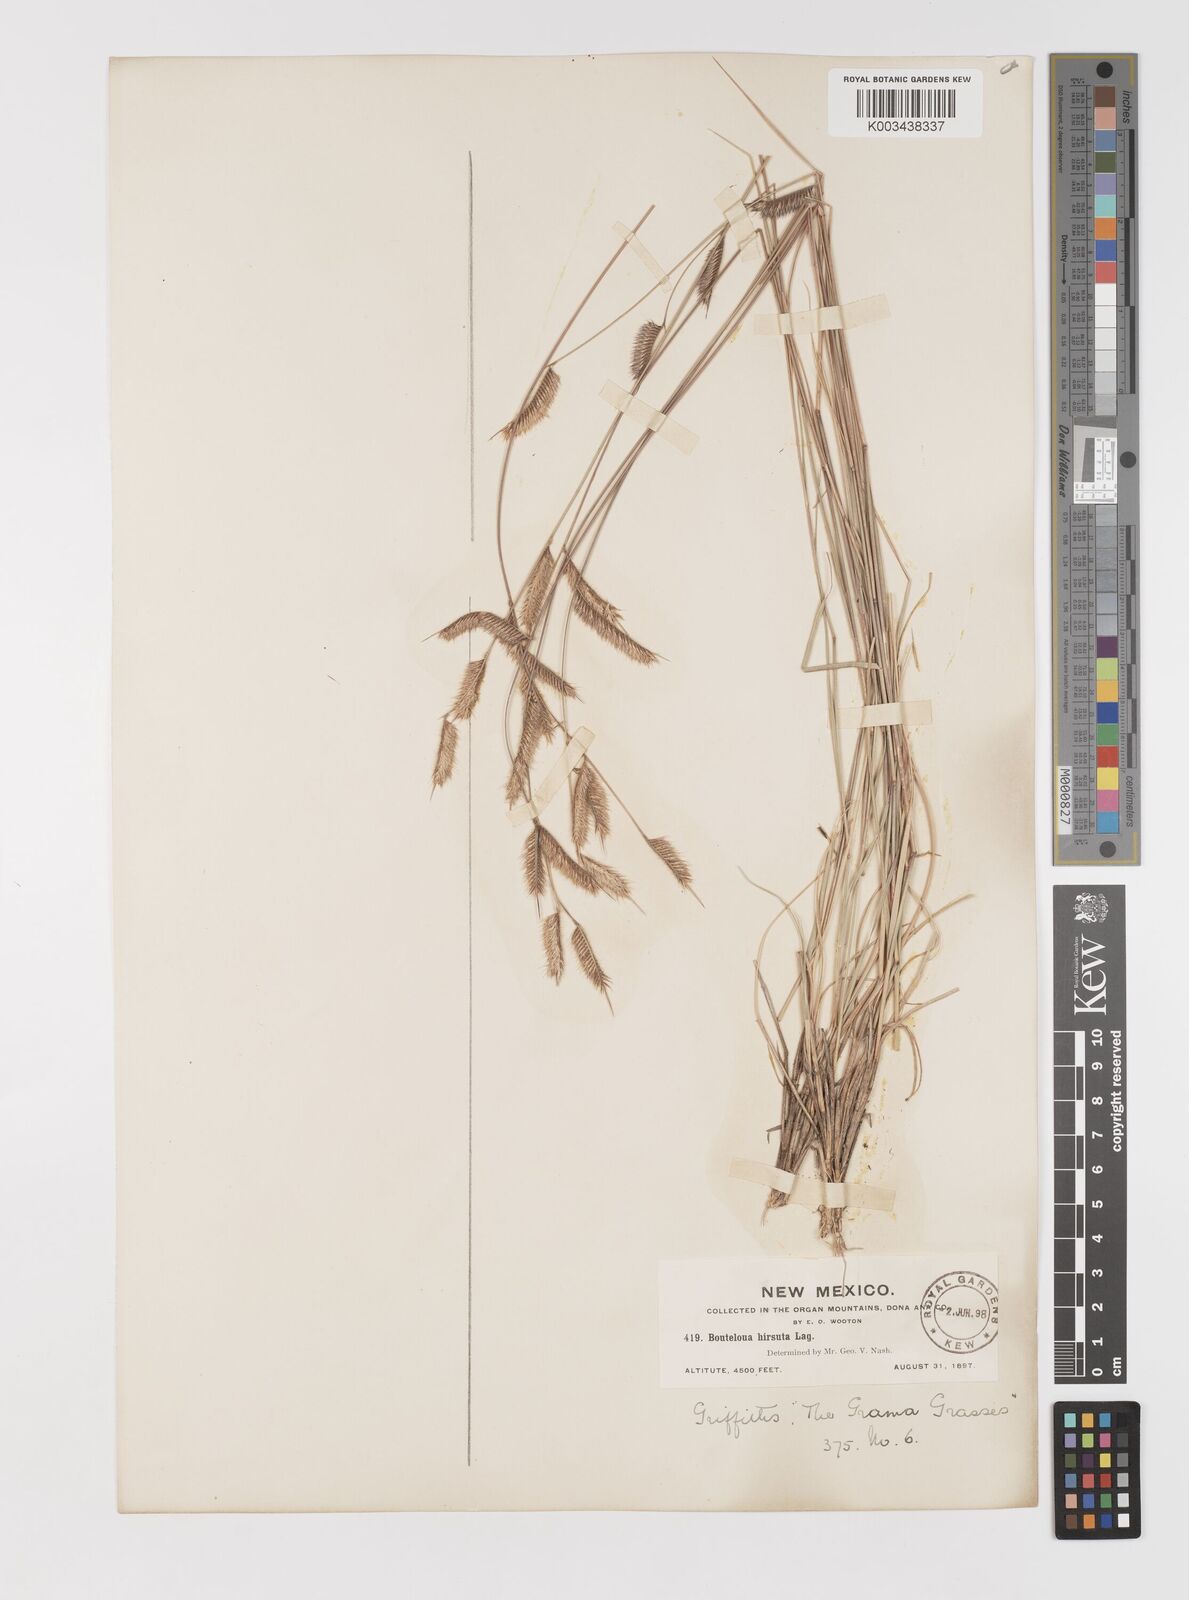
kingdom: Plantae
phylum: Tracheophyta
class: Liliopsida
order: Poales
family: Poaceae
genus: Bouteloua
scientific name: Bouteloua hirsuta
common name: Hairy grama
